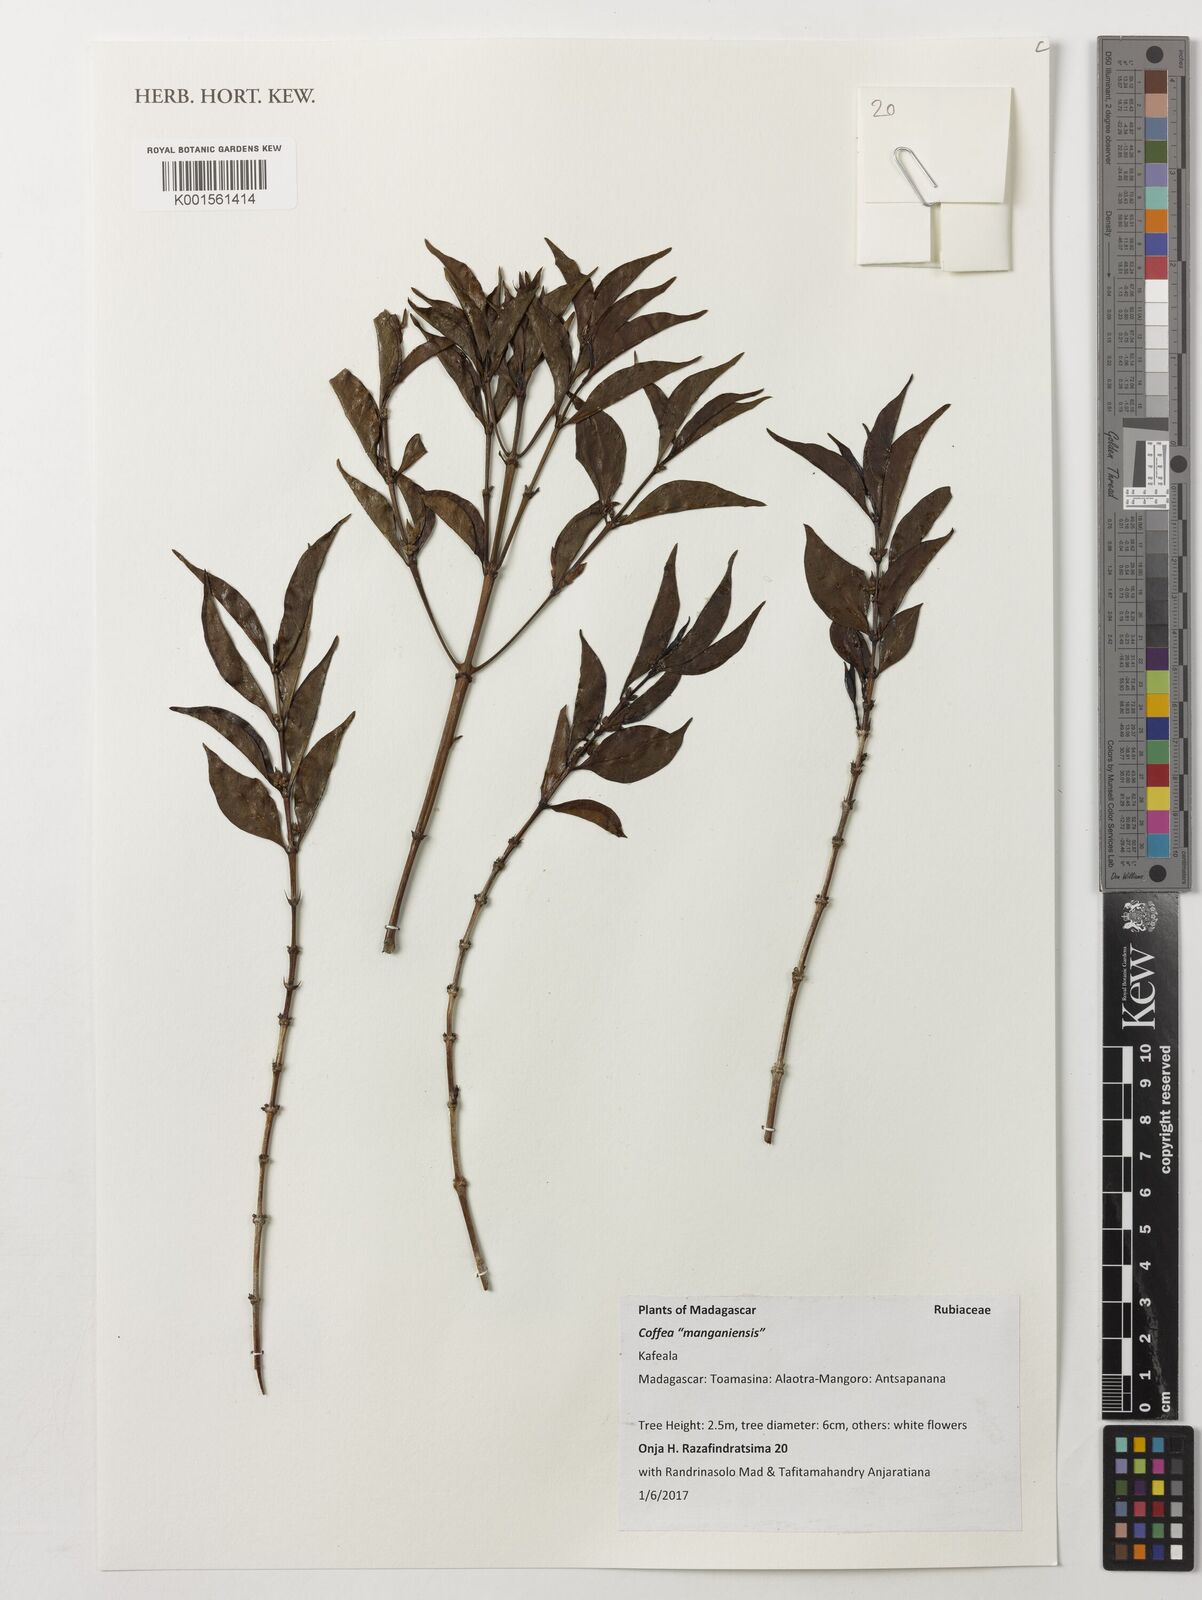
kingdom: Plantae
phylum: Tracheophyta
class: Magnoliopsida
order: Gentianales
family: Rubiaceae
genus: Coffea
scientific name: Coffea
